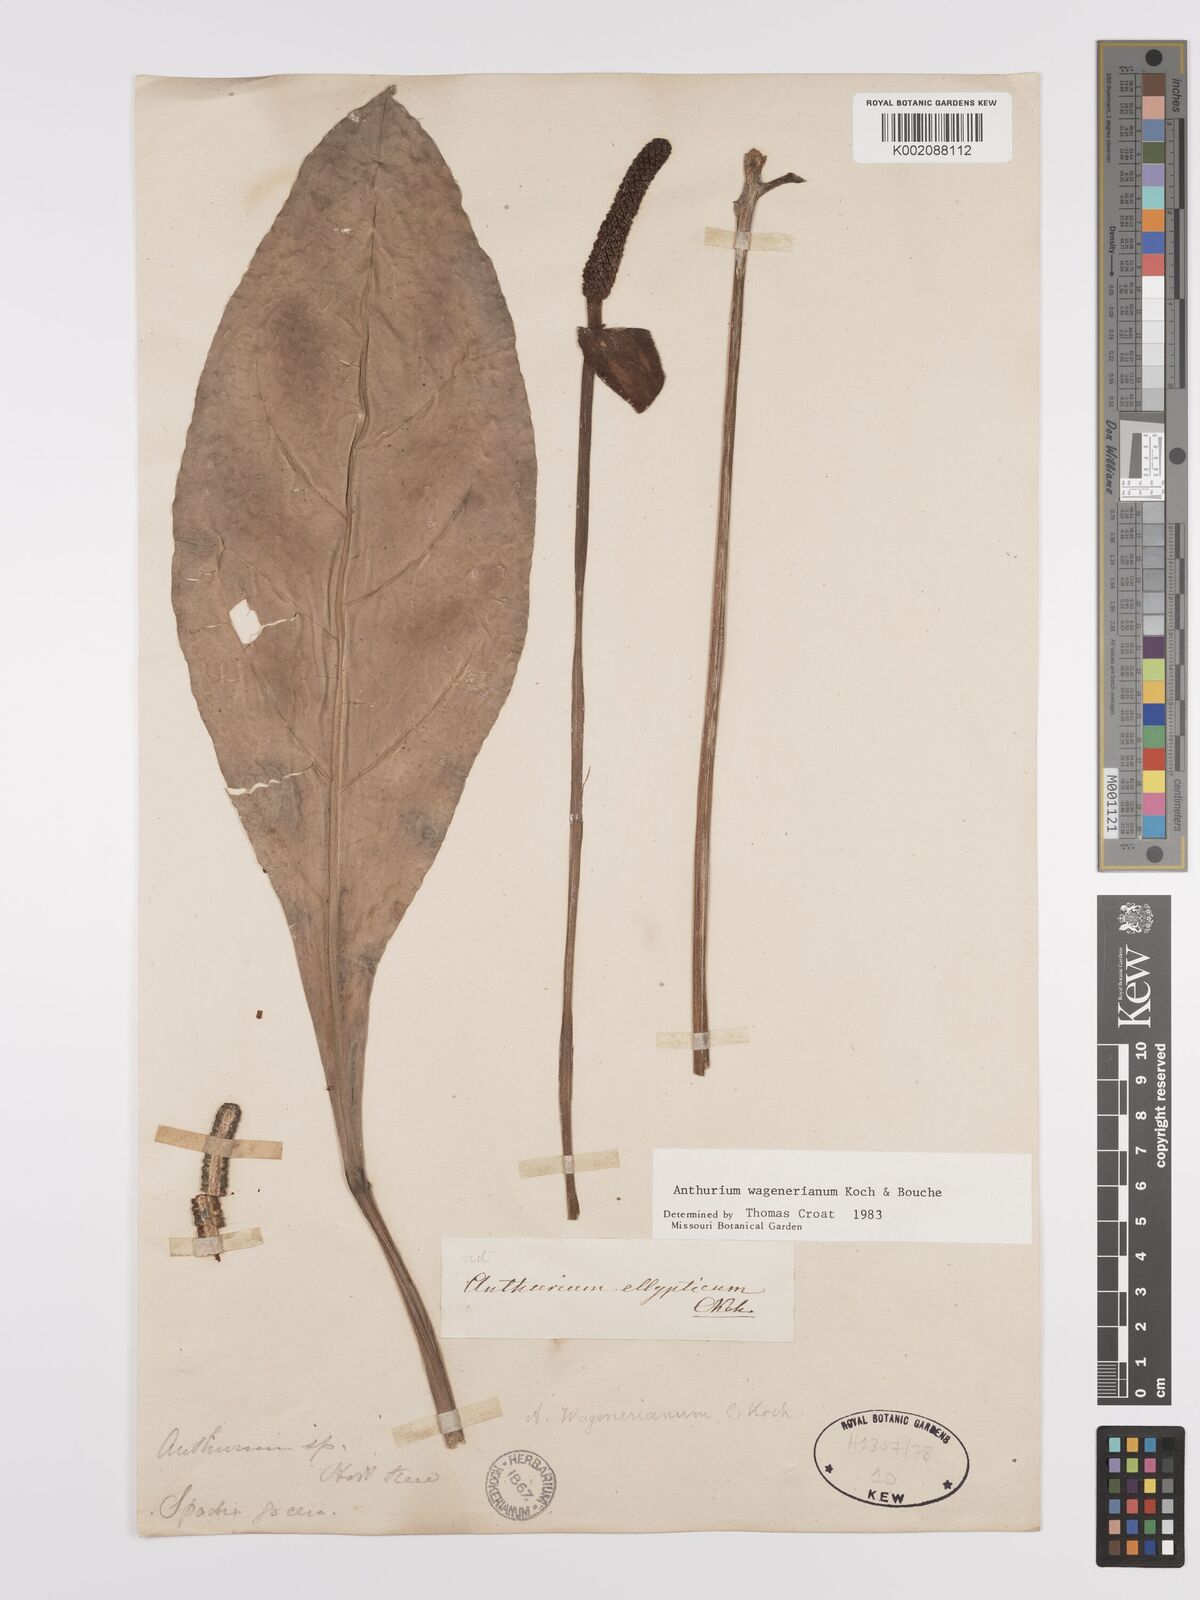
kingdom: Plantae
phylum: Tracheophyta
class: Liliopsida
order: Alismatales
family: Araceae
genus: Anthurium
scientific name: Anthurium wagenerianum
